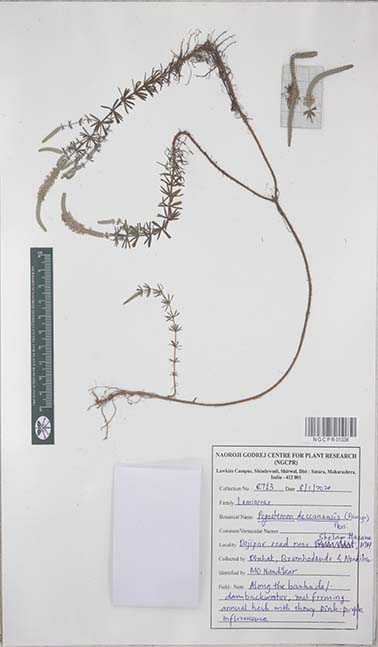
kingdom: Plantae
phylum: Tracheophyta
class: Magnoliopsida
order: Lamiales
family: Lamiaceae
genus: Pogostemon
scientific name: Pogostemon deccanensis
